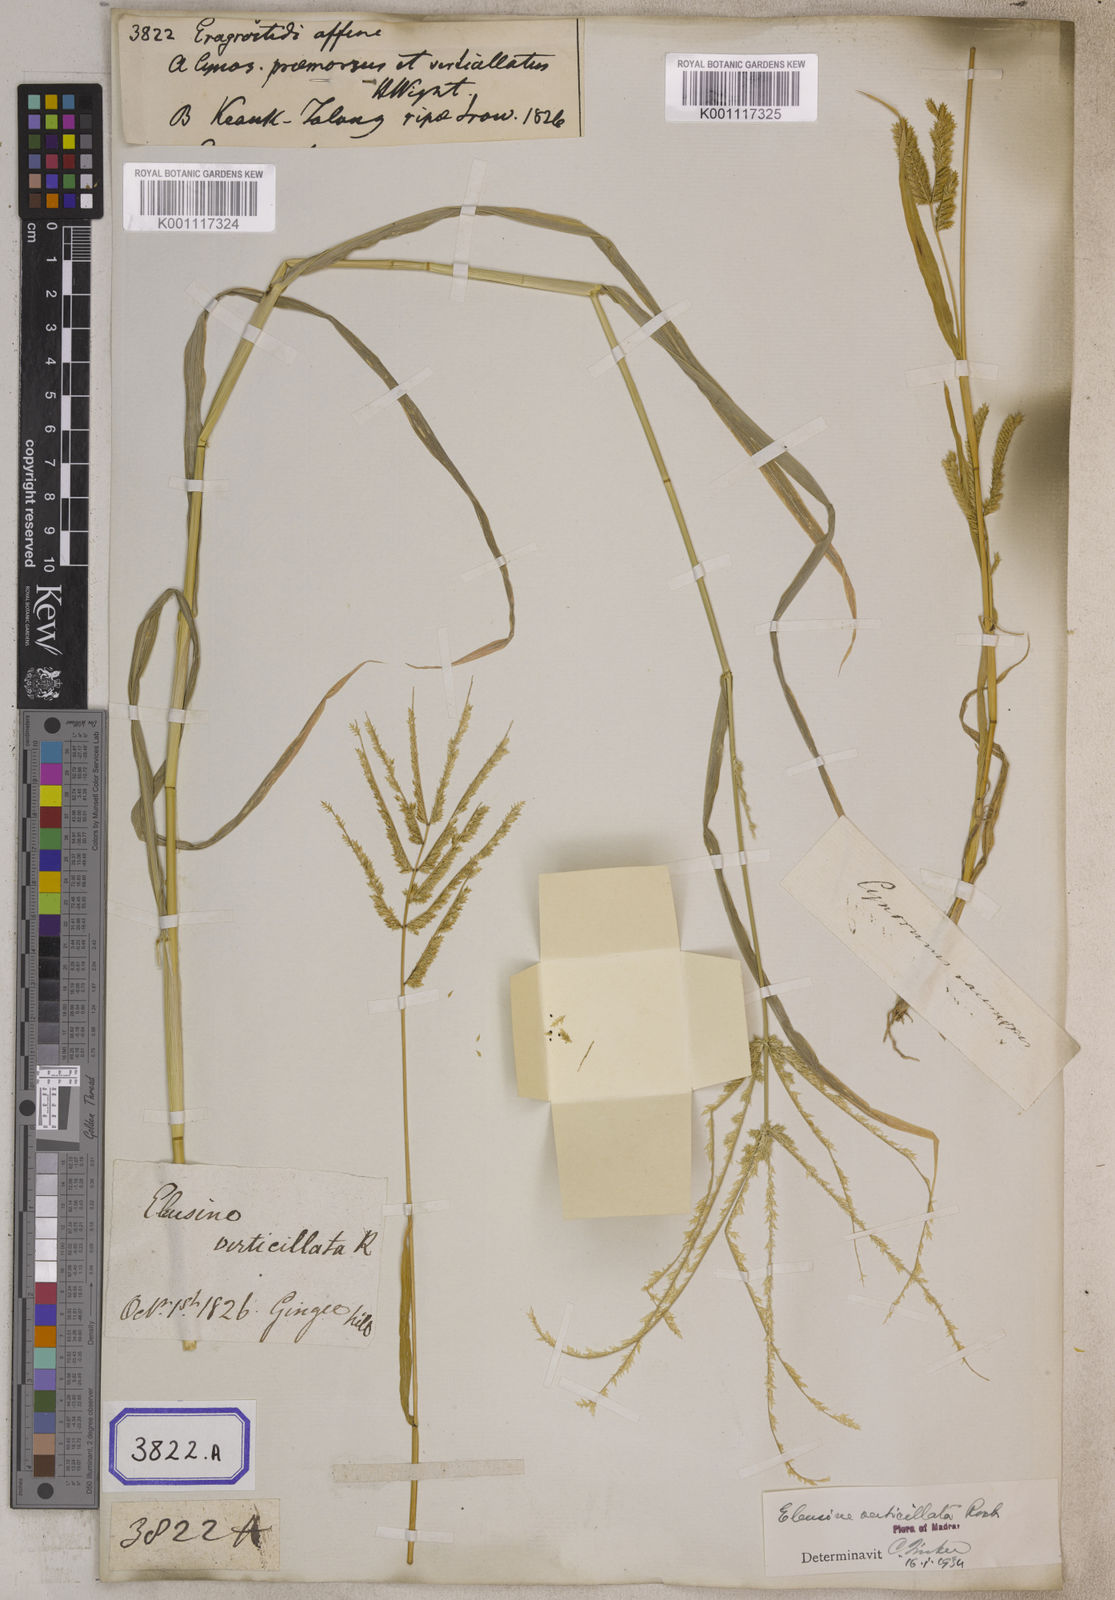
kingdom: Plantae
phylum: Tracheophyta
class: Liliopsida
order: Poales
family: Poaceae
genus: Eragrostis
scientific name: Eragrostis
